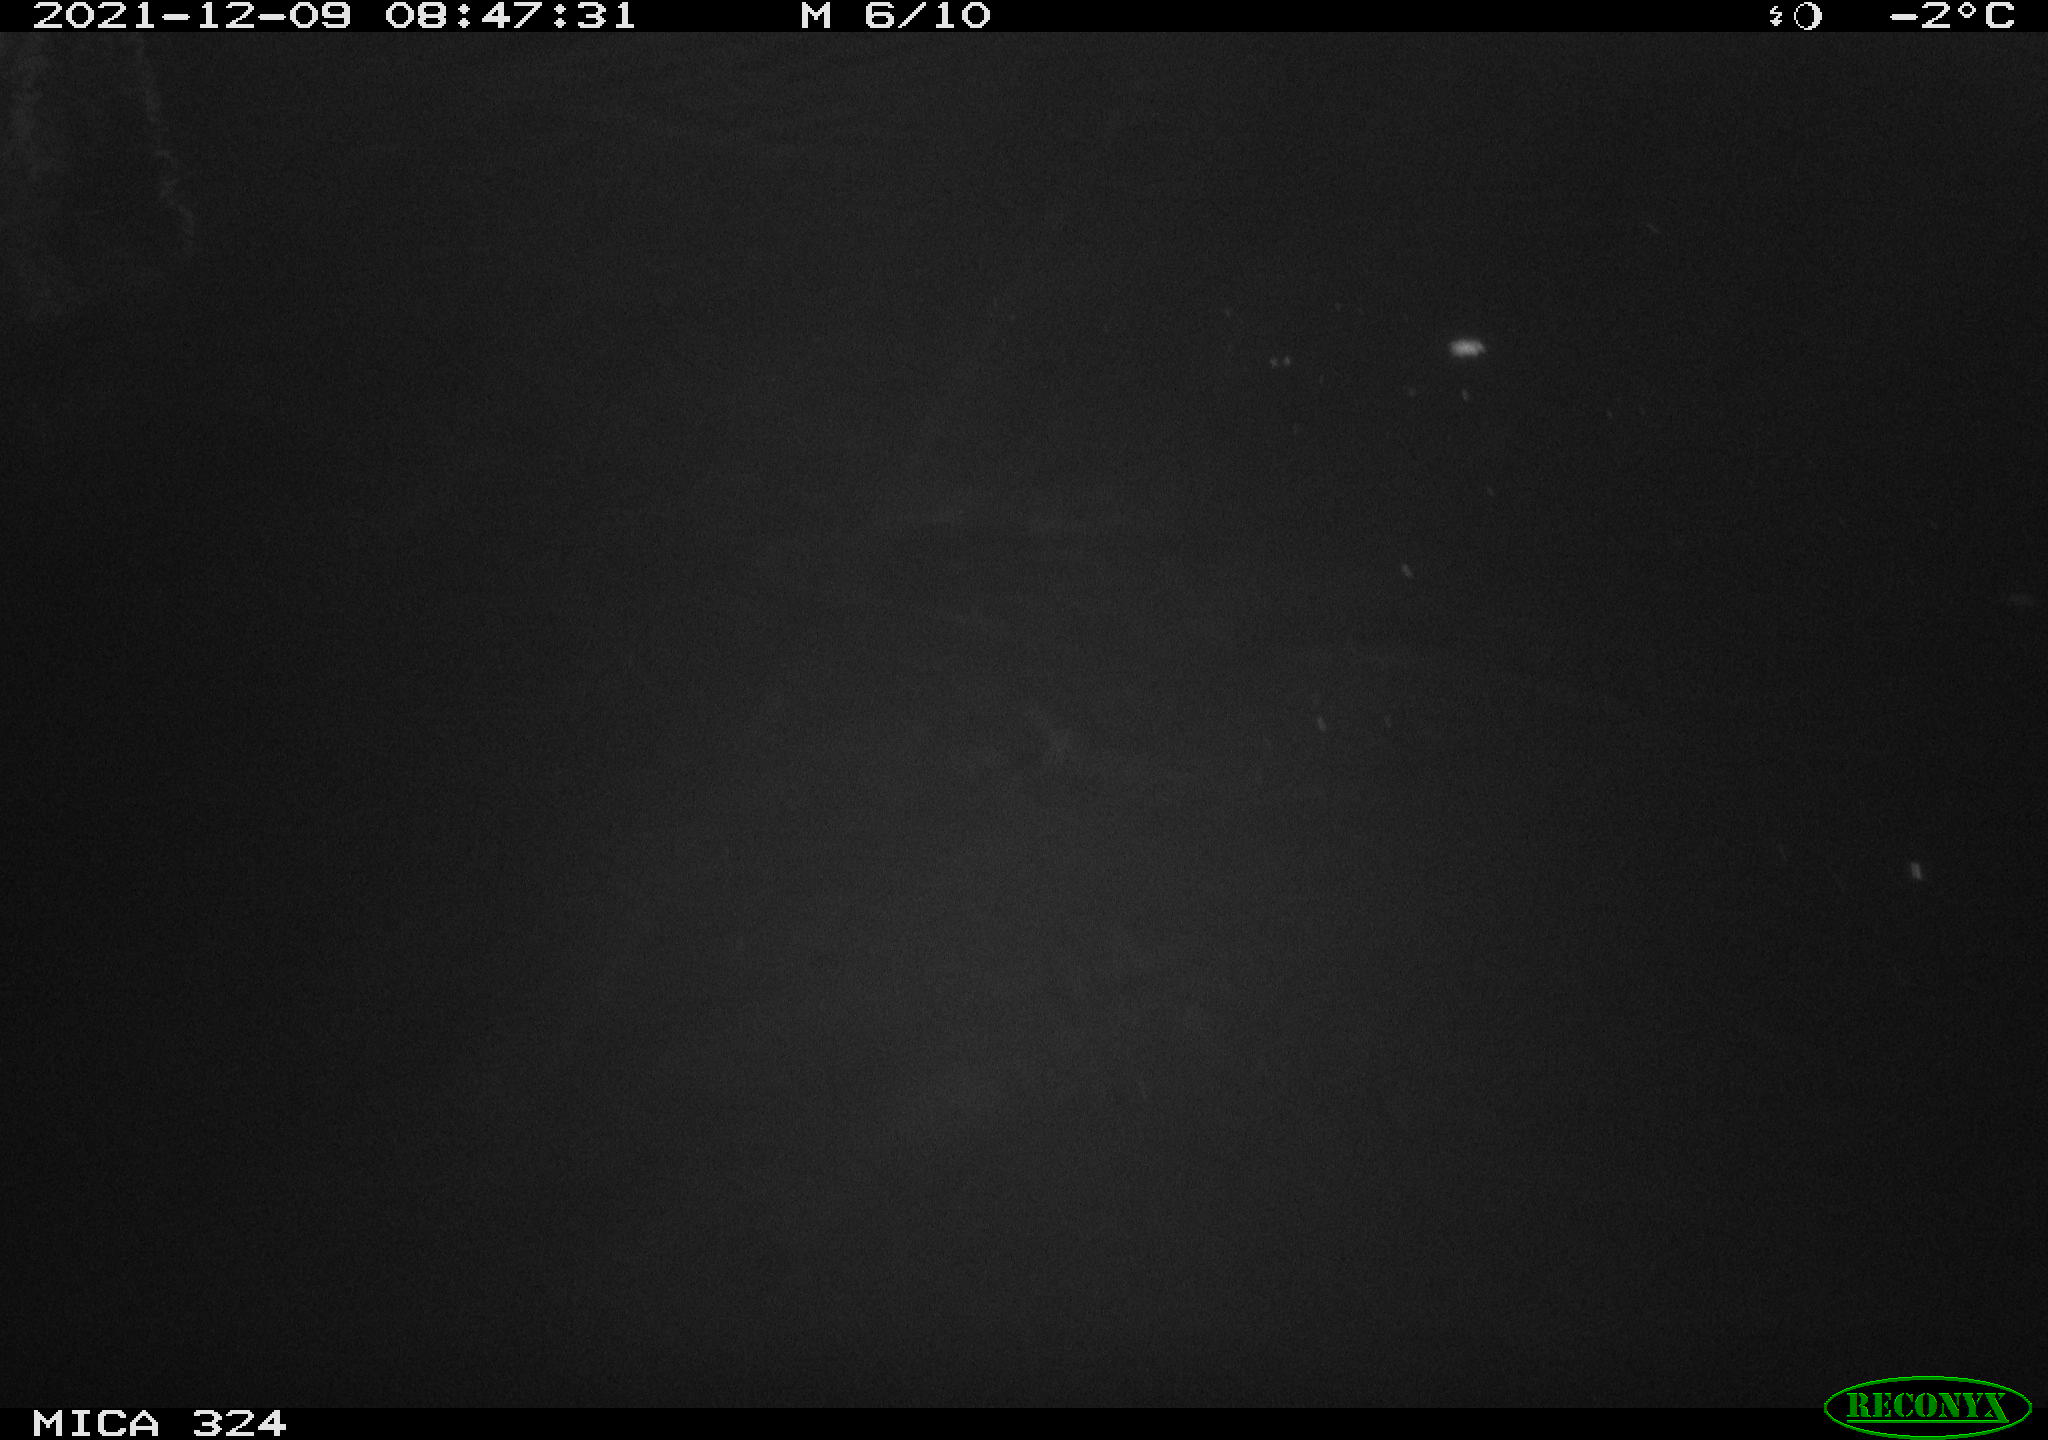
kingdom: Animalia
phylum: Chordata
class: Mammalia
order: Rodentia
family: Cricetidae
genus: Ondatra
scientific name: Ondatra zibethicus
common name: Muskrat
